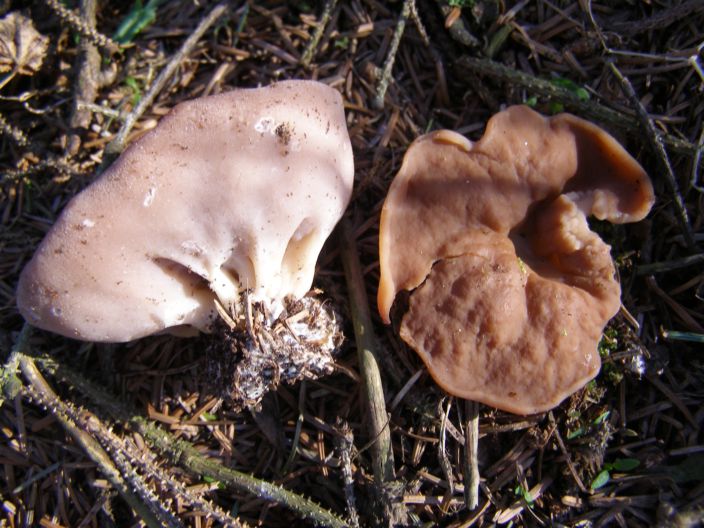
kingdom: Fungi
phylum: Ascomycota
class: Pezizomycetes
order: Pezizales
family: Discinaceae
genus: Discina
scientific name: Discina ancilis
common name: udbredt stenmorkel
